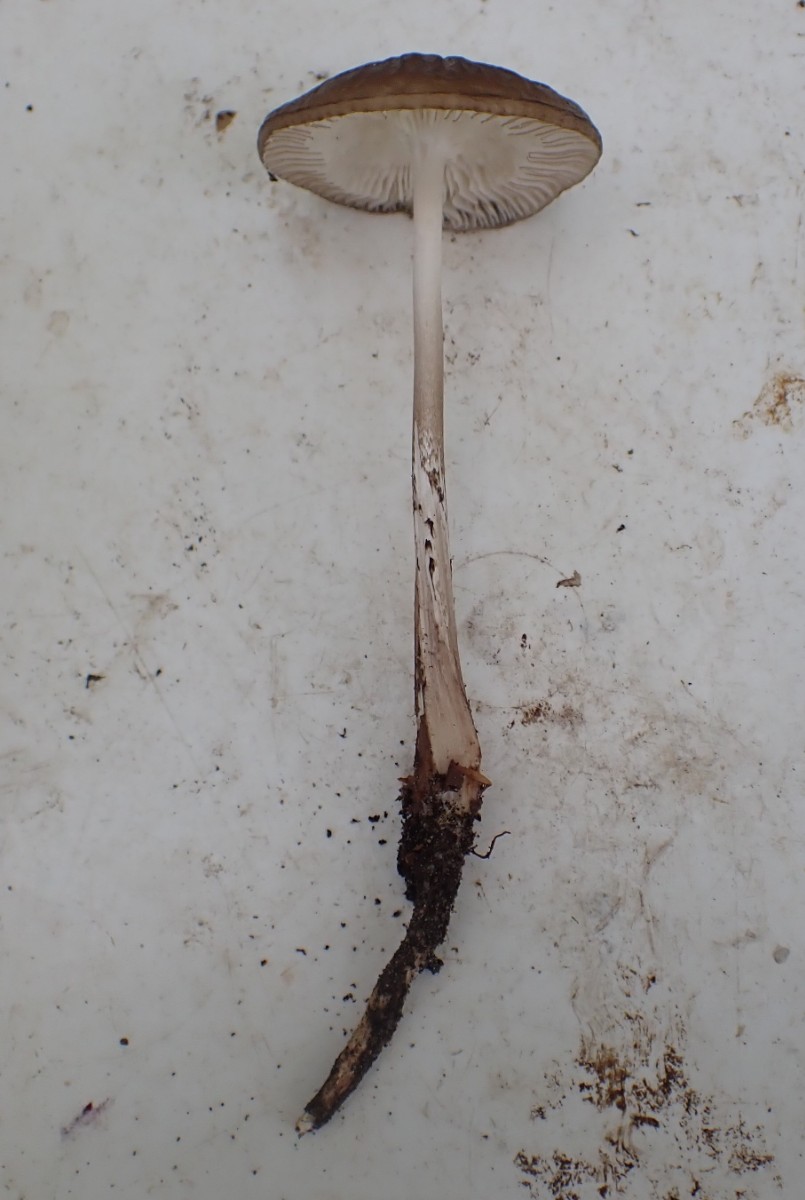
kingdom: Fungi
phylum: Basidiomycota
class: Agaricomycetes
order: Agaricales
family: Physalacriaceae
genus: Hymenopellis
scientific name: Hymenopellis radicata
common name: almindelig pælerodshat
